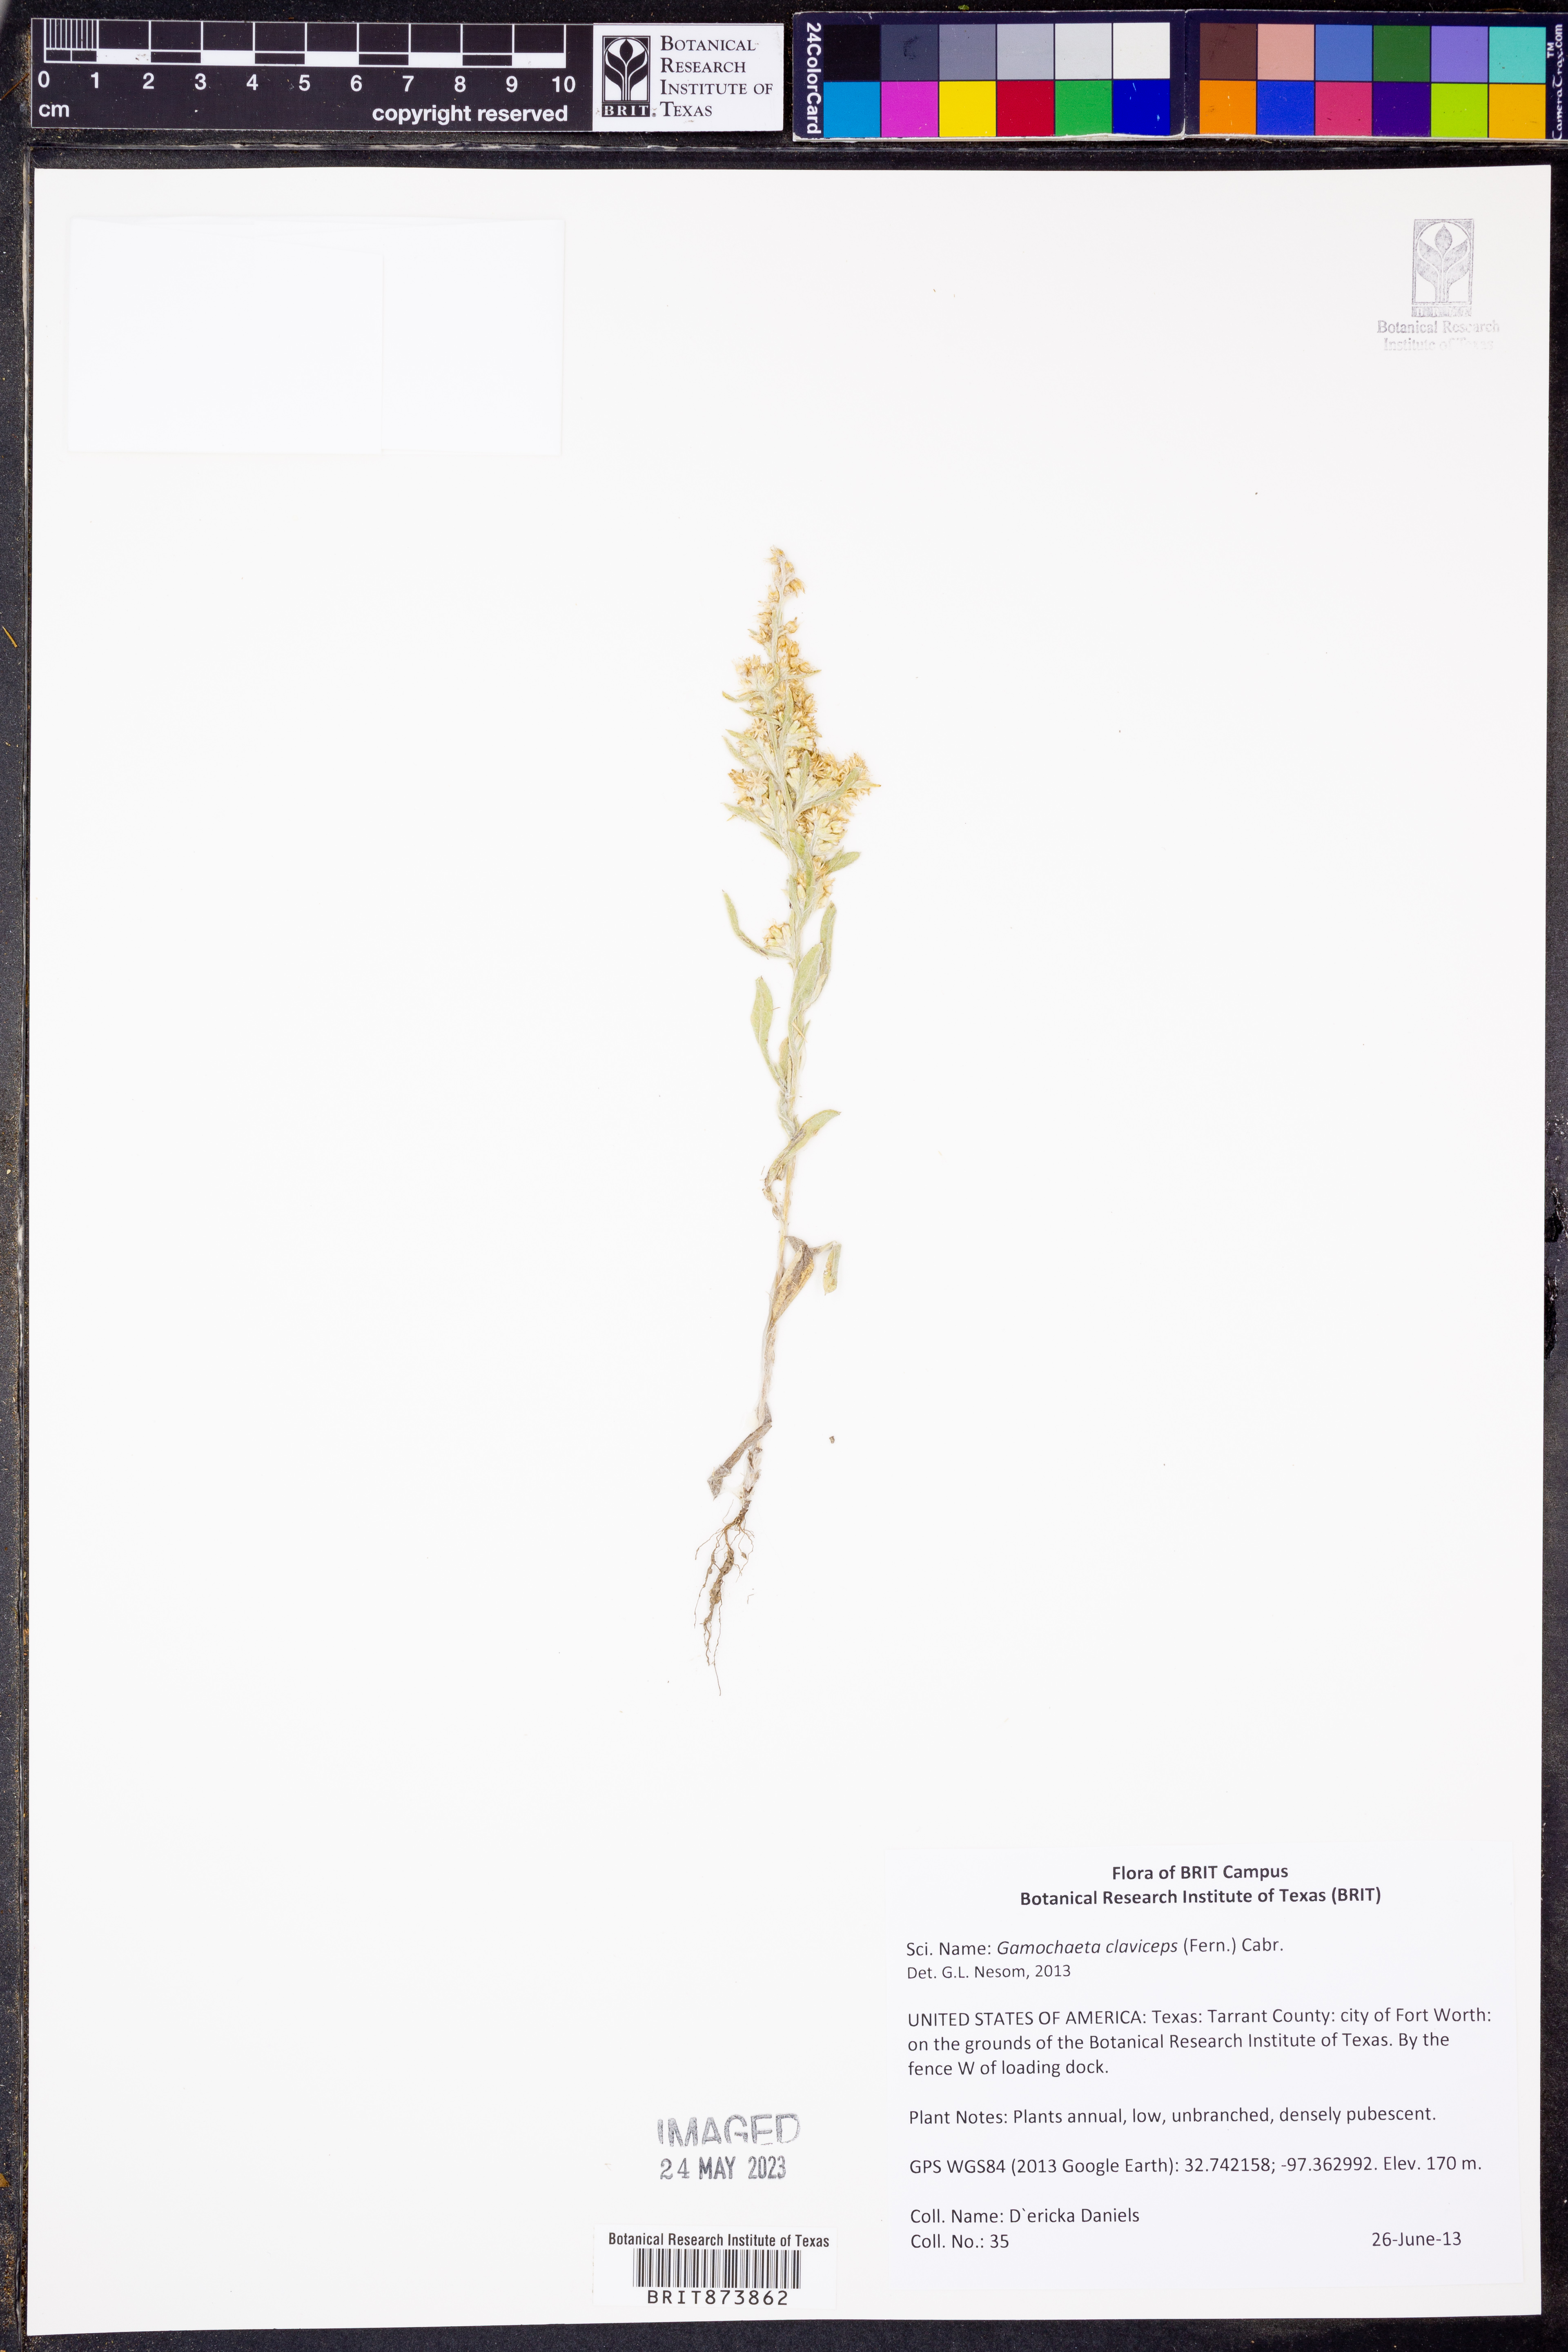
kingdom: Plantae
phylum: Tracheophyta
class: Magnoliopsida
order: Asterales
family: Asteraceae
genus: Gamochaeta
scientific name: Gamochaeta calviceps
